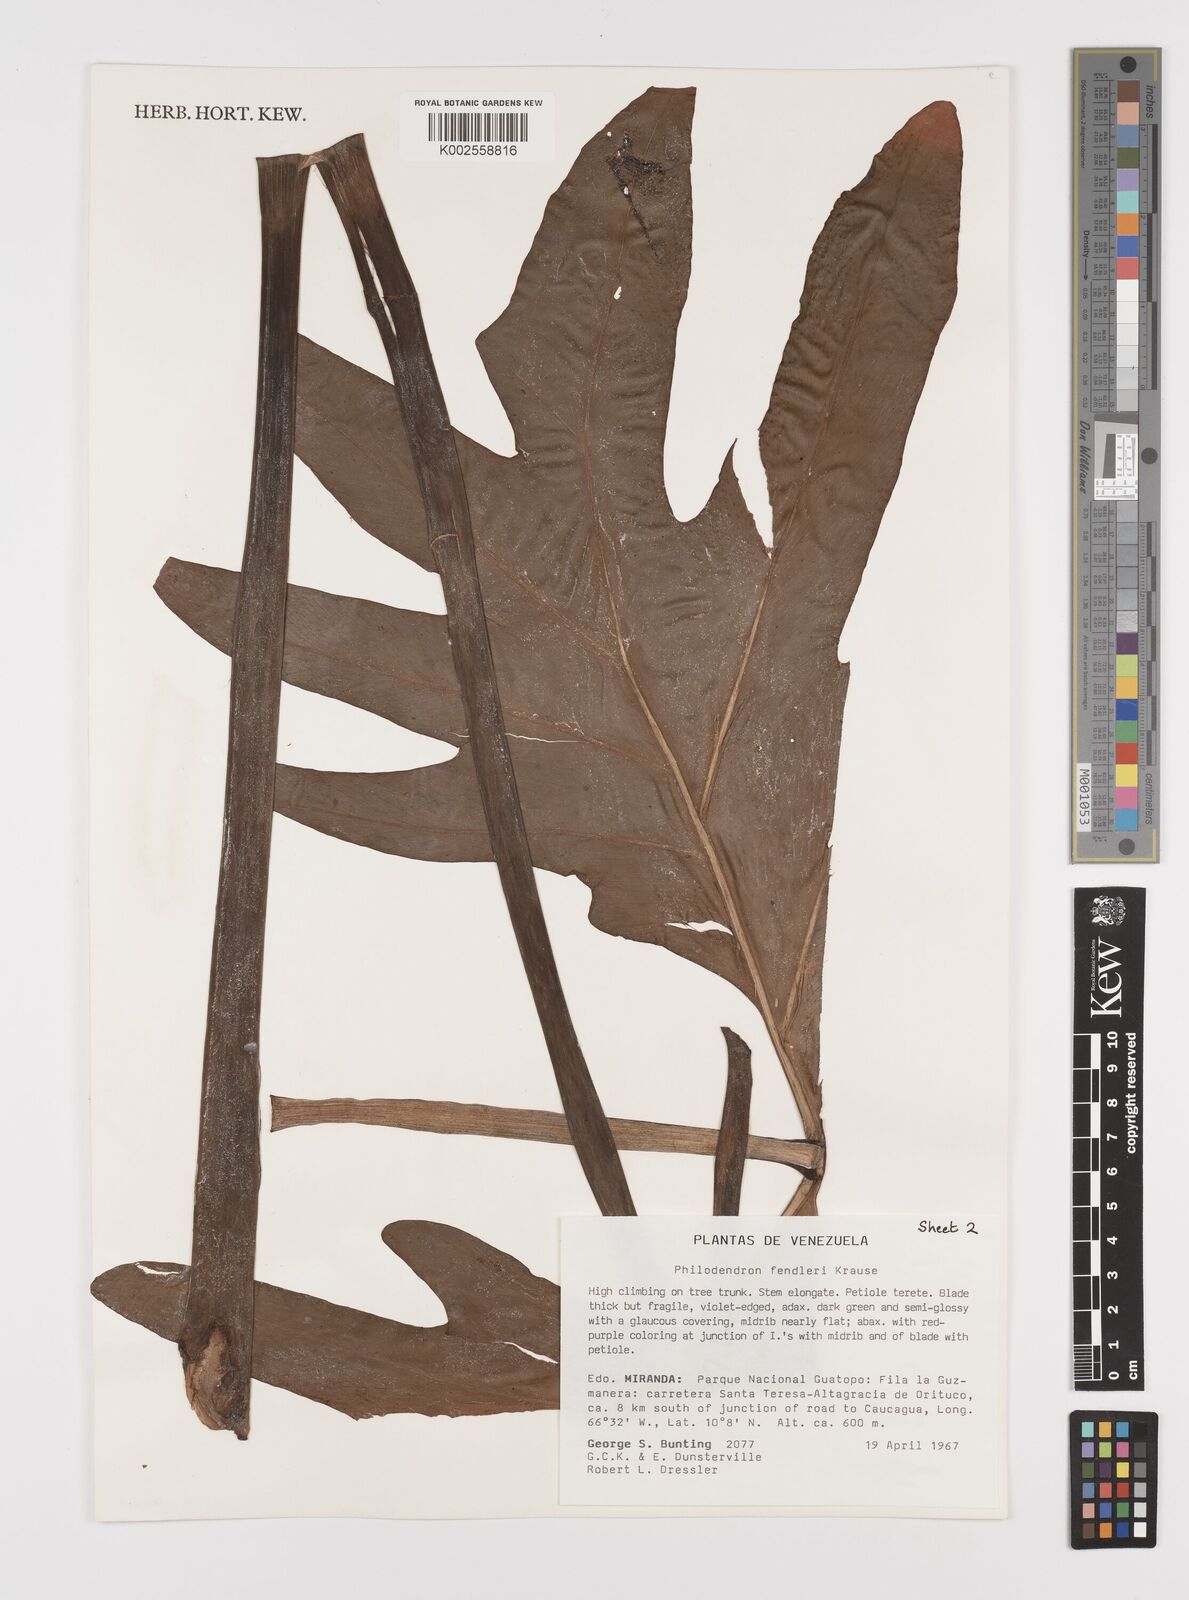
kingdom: Plantae
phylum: Tracheophyta
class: Liliopsida
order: Alismatales
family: Araceae
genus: Philodendron
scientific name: Philodendron fendleri
